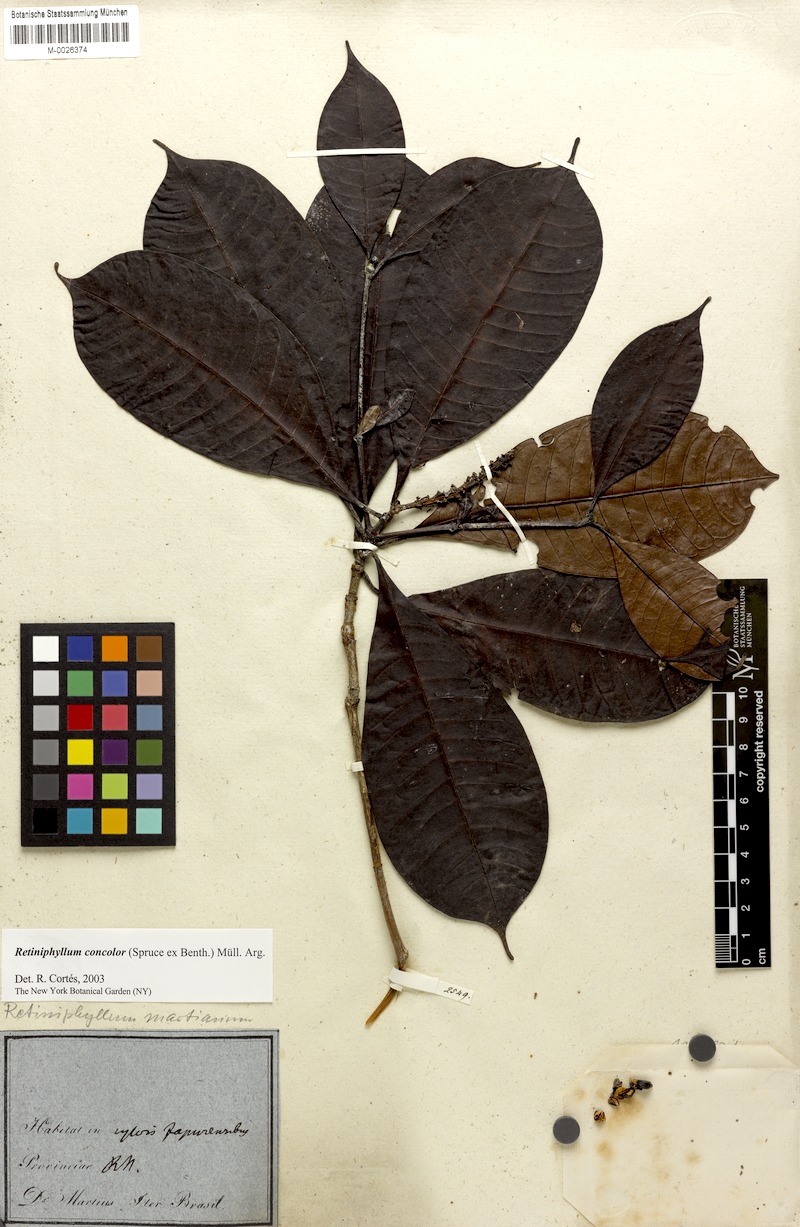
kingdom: Plantae
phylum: Tracheophyta
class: Magnoliopsida
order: Gentianales
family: Rubiaceae
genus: Retiniphyllum
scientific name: Retiniphyllum concolor
